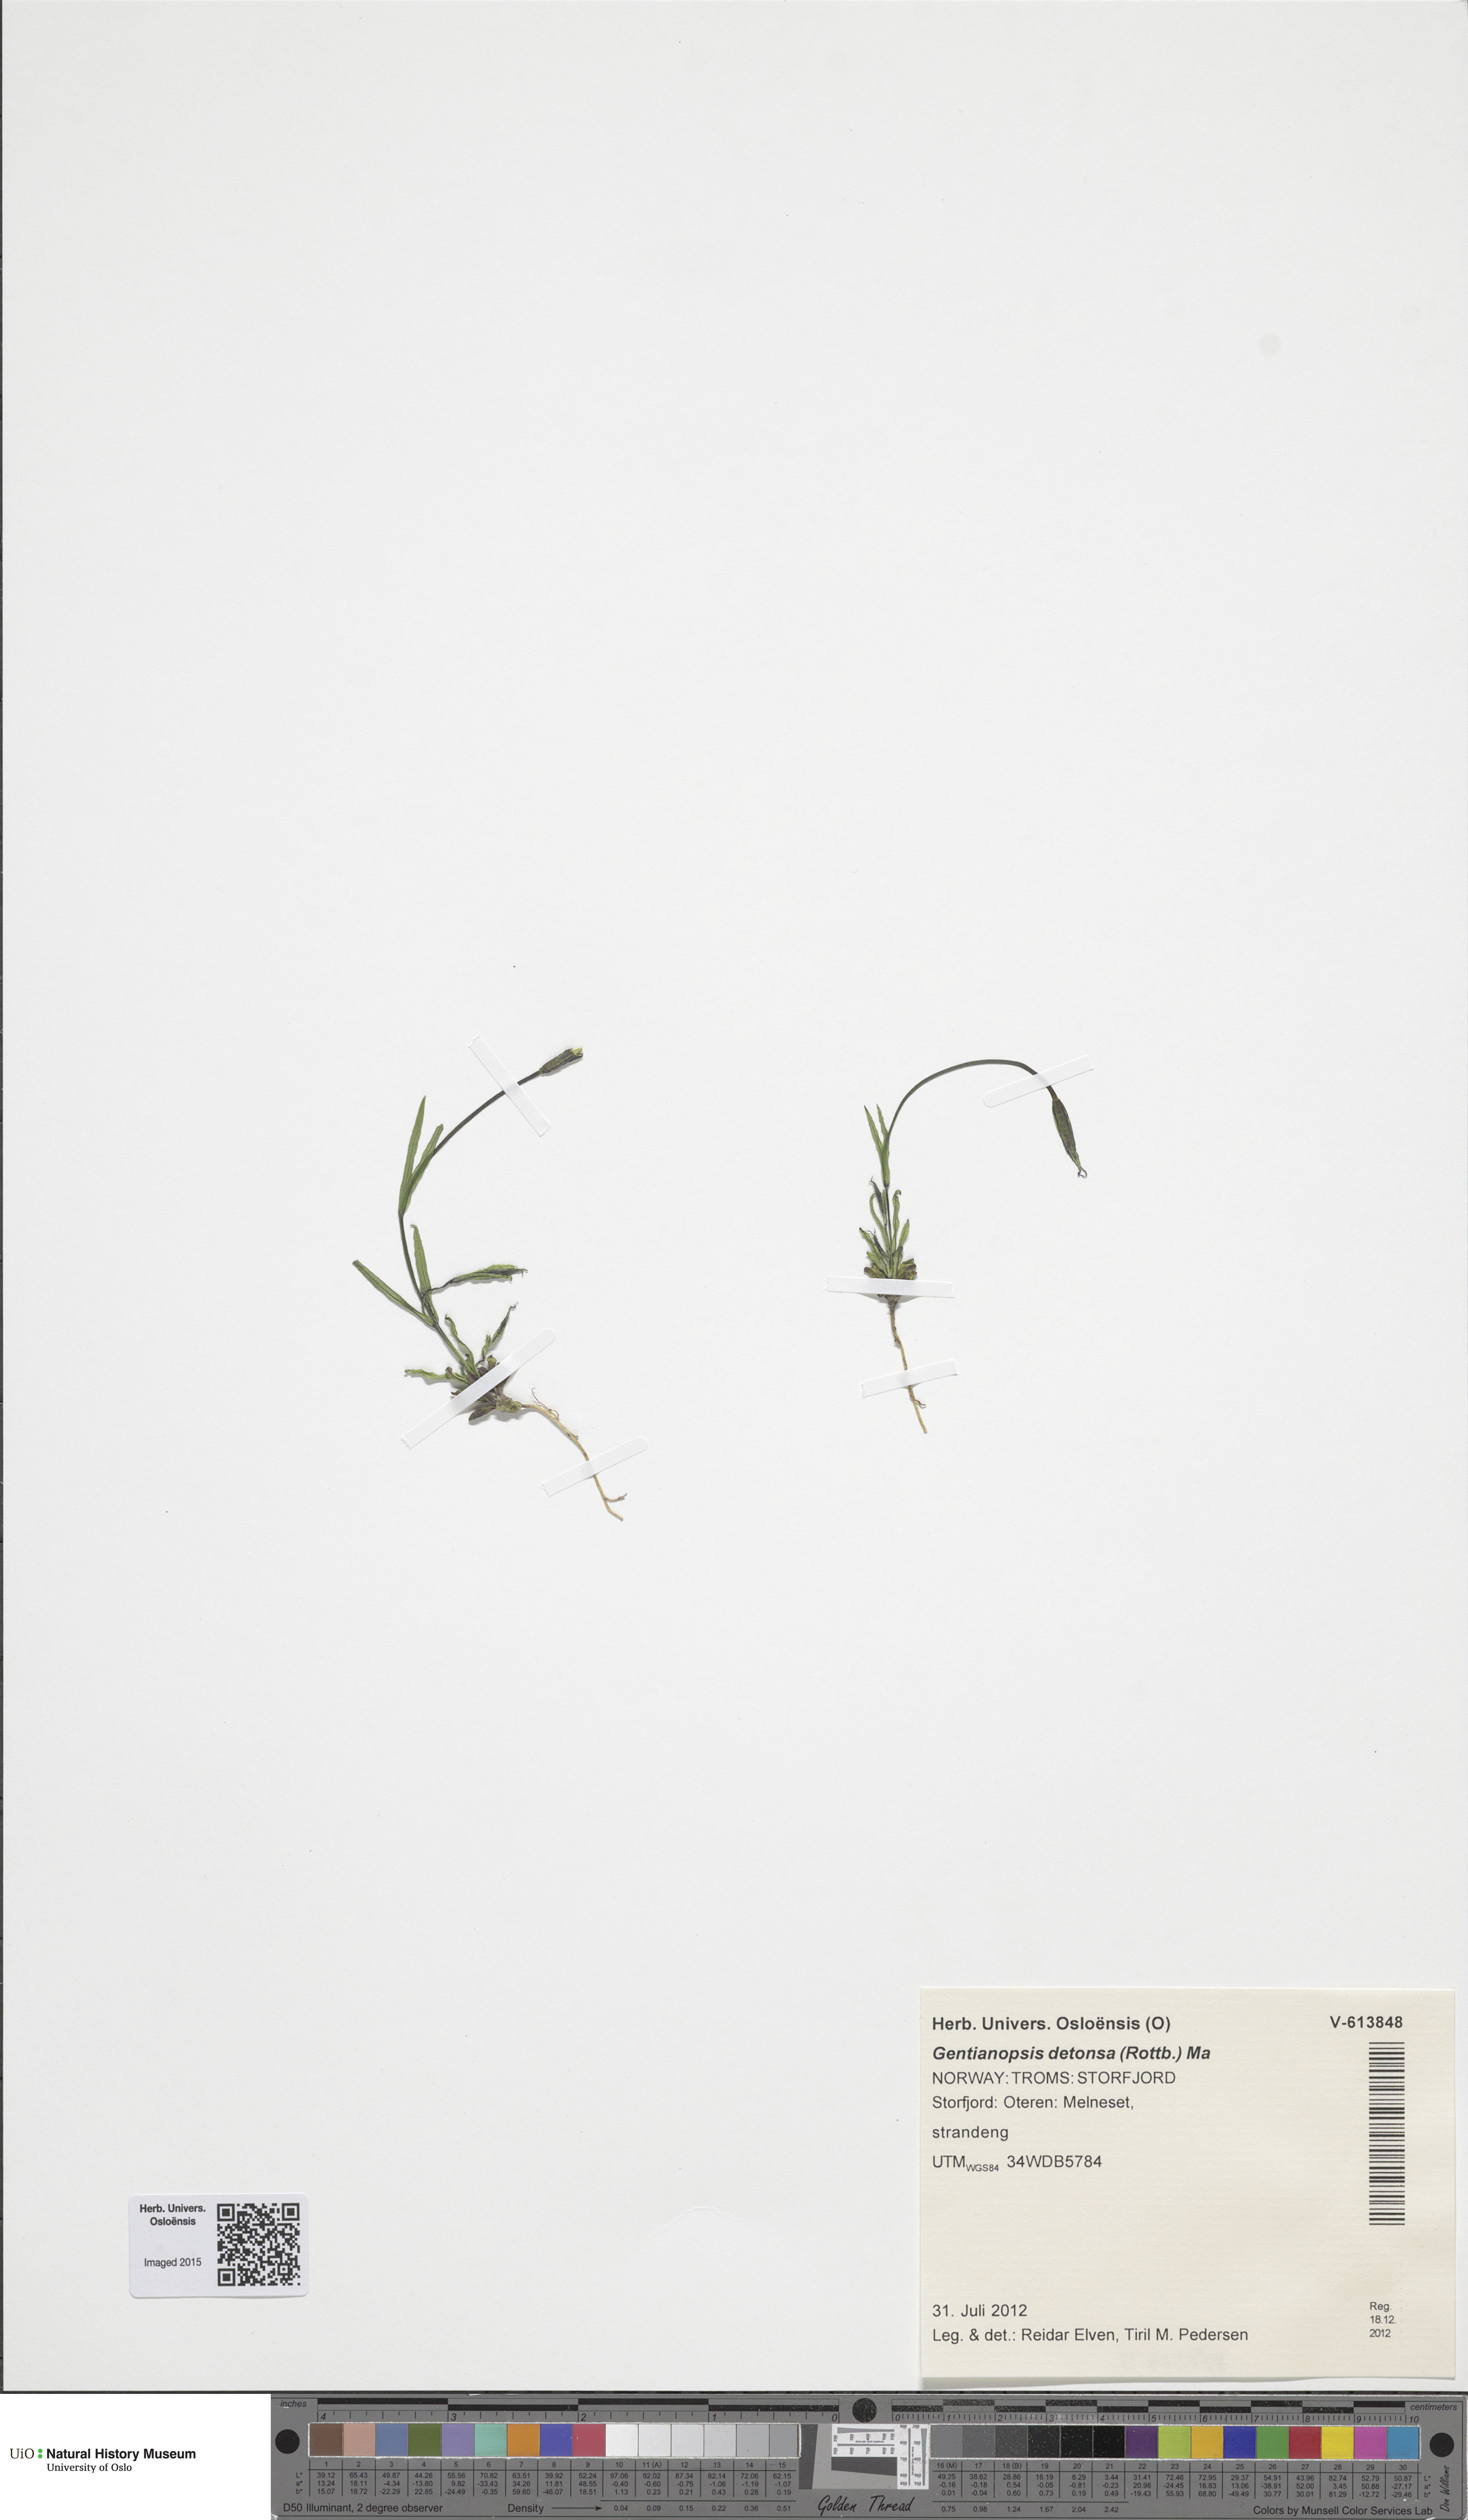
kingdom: Plantae
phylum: Tracheophyta
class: Magnoliopsida
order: Gentianales
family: Gentianaceae
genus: Gentianopsis
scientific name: Gentianopsis detonsa
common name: Fringed-gentian
